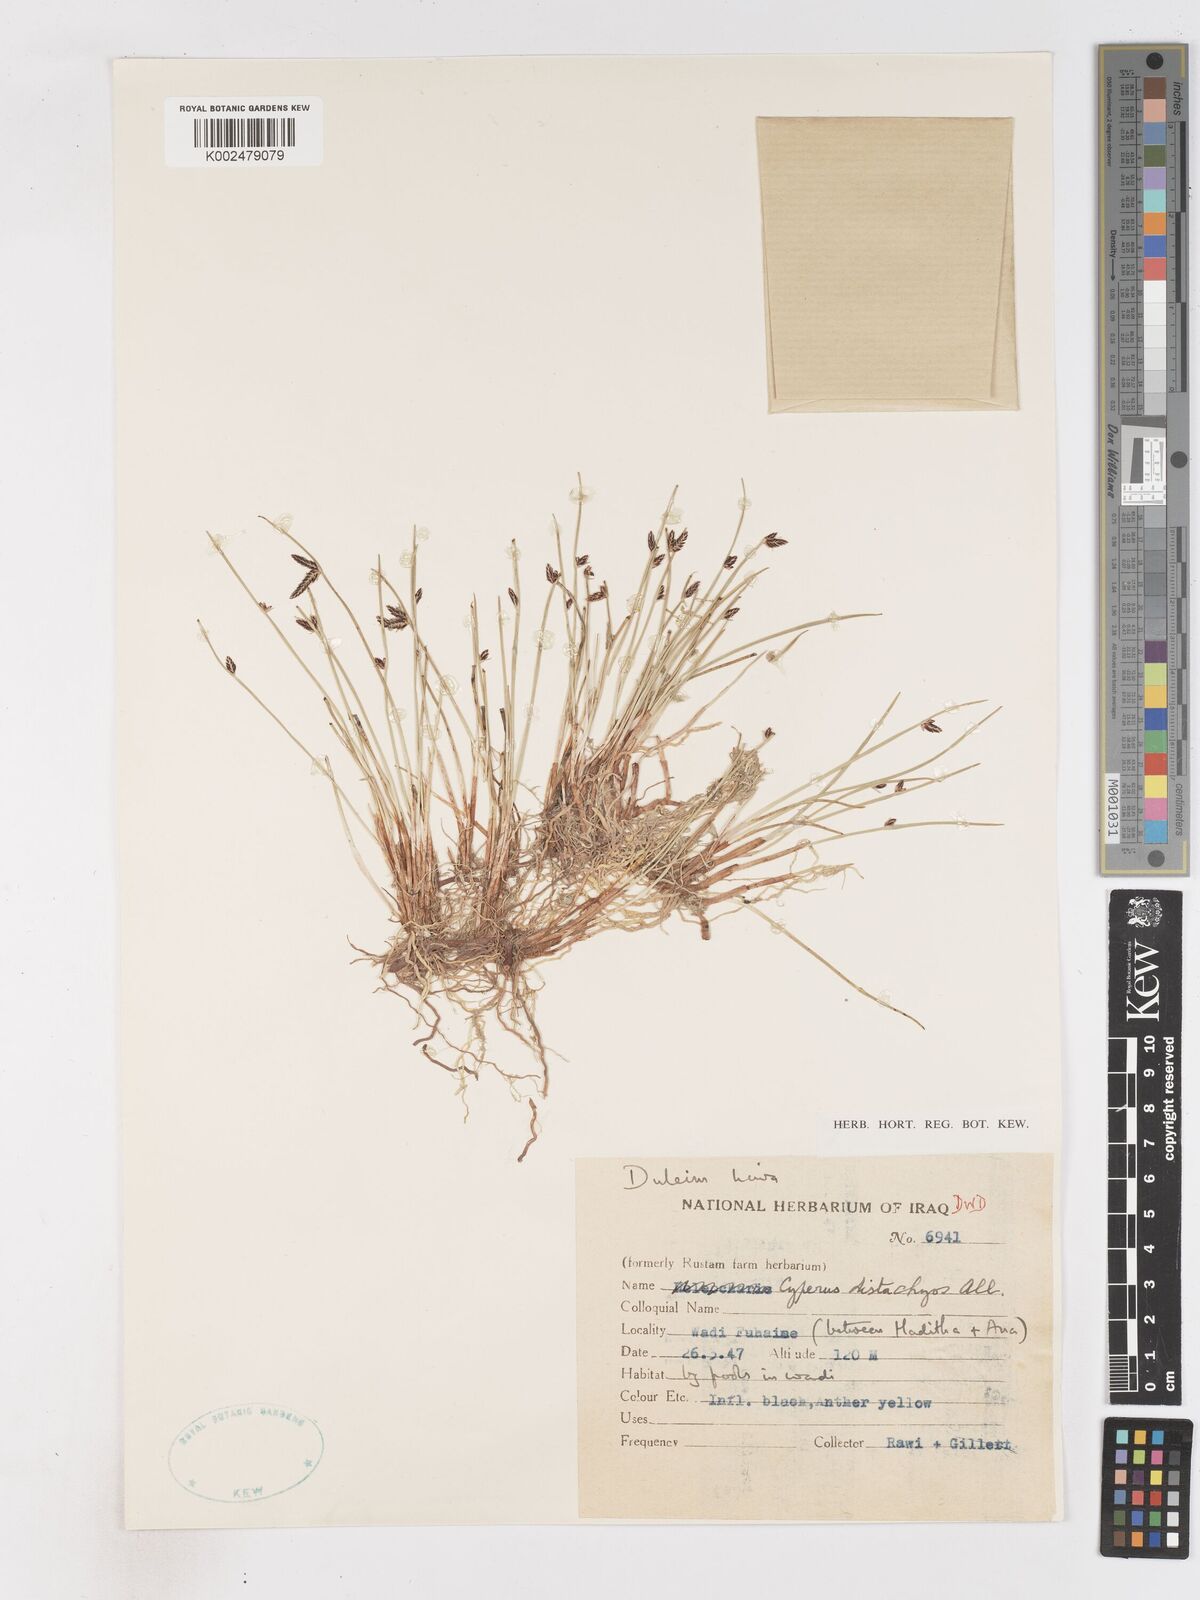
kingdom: Plantae
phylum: Tracheophyta
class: Liliopsida
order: Poales
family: Cyperaceae
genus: Cyperus
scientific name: Cyperus laevigatus
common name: Smooth flat sedge
